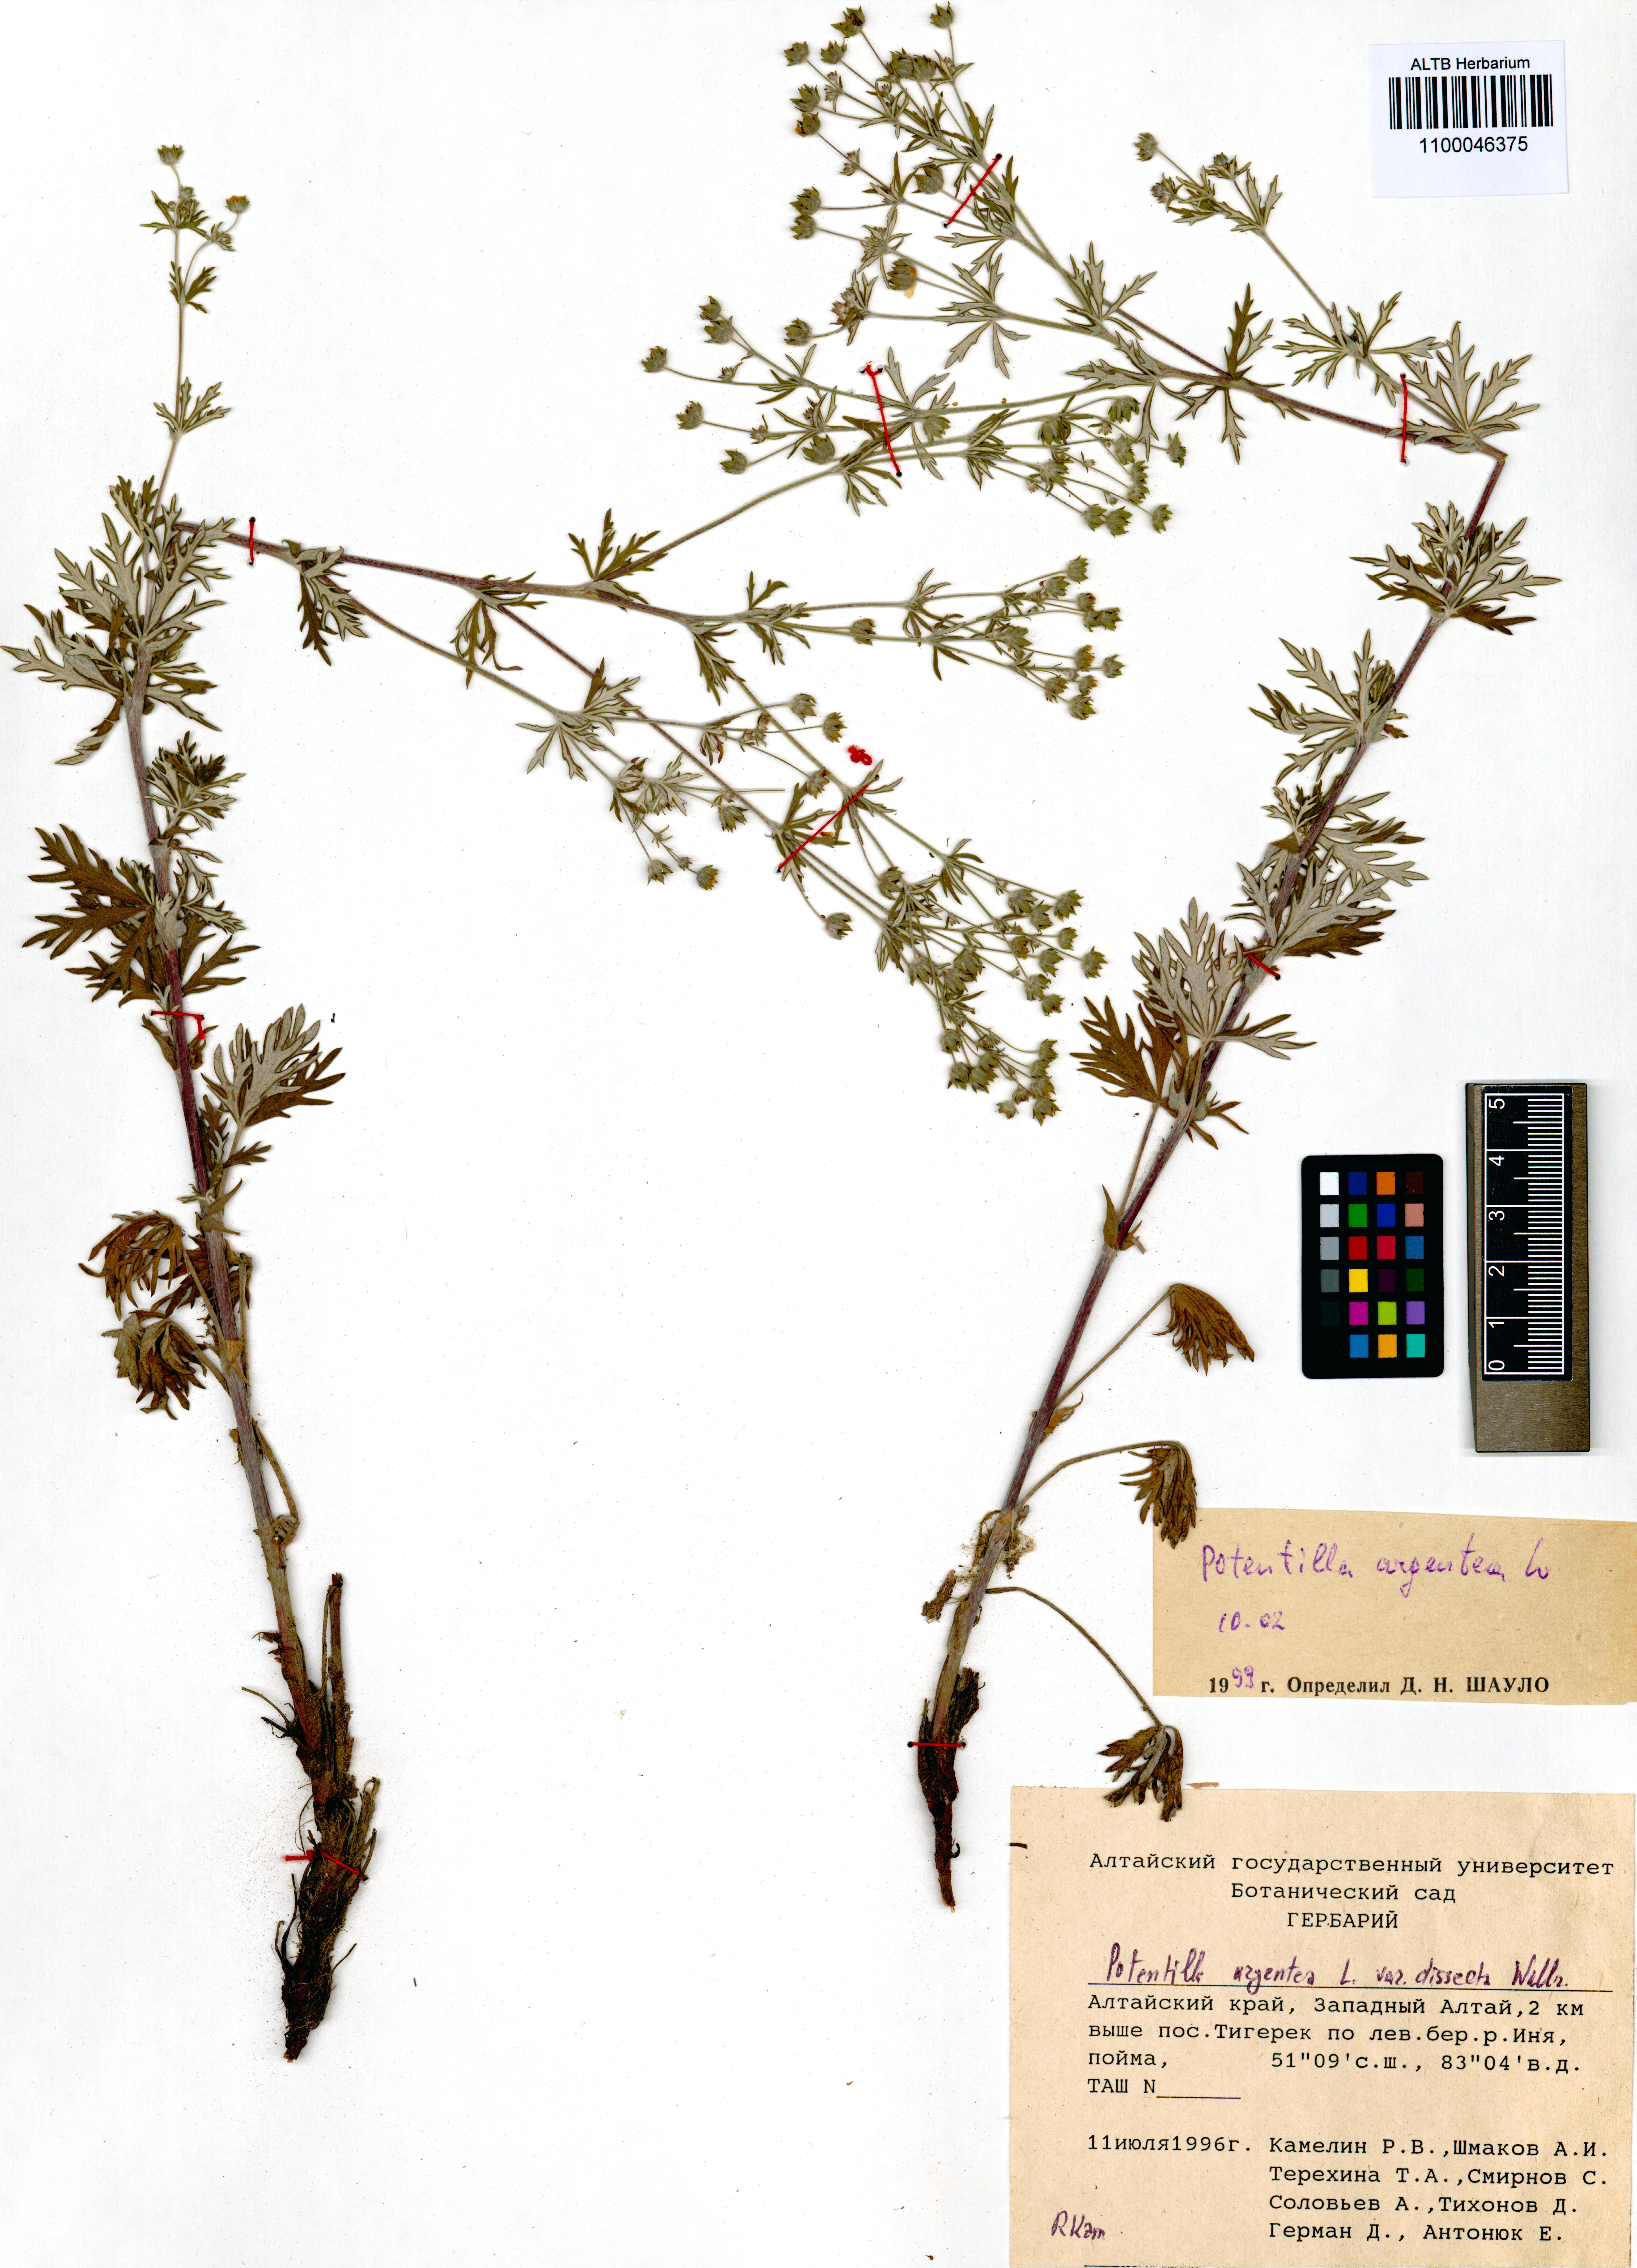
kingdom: Plantae
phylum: Tracheophyta
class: Magnoliopsida
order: Rosales
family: Rosaceae
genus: Potentilla
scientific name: Potentilla argentea
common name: Hoary cinquefoil
